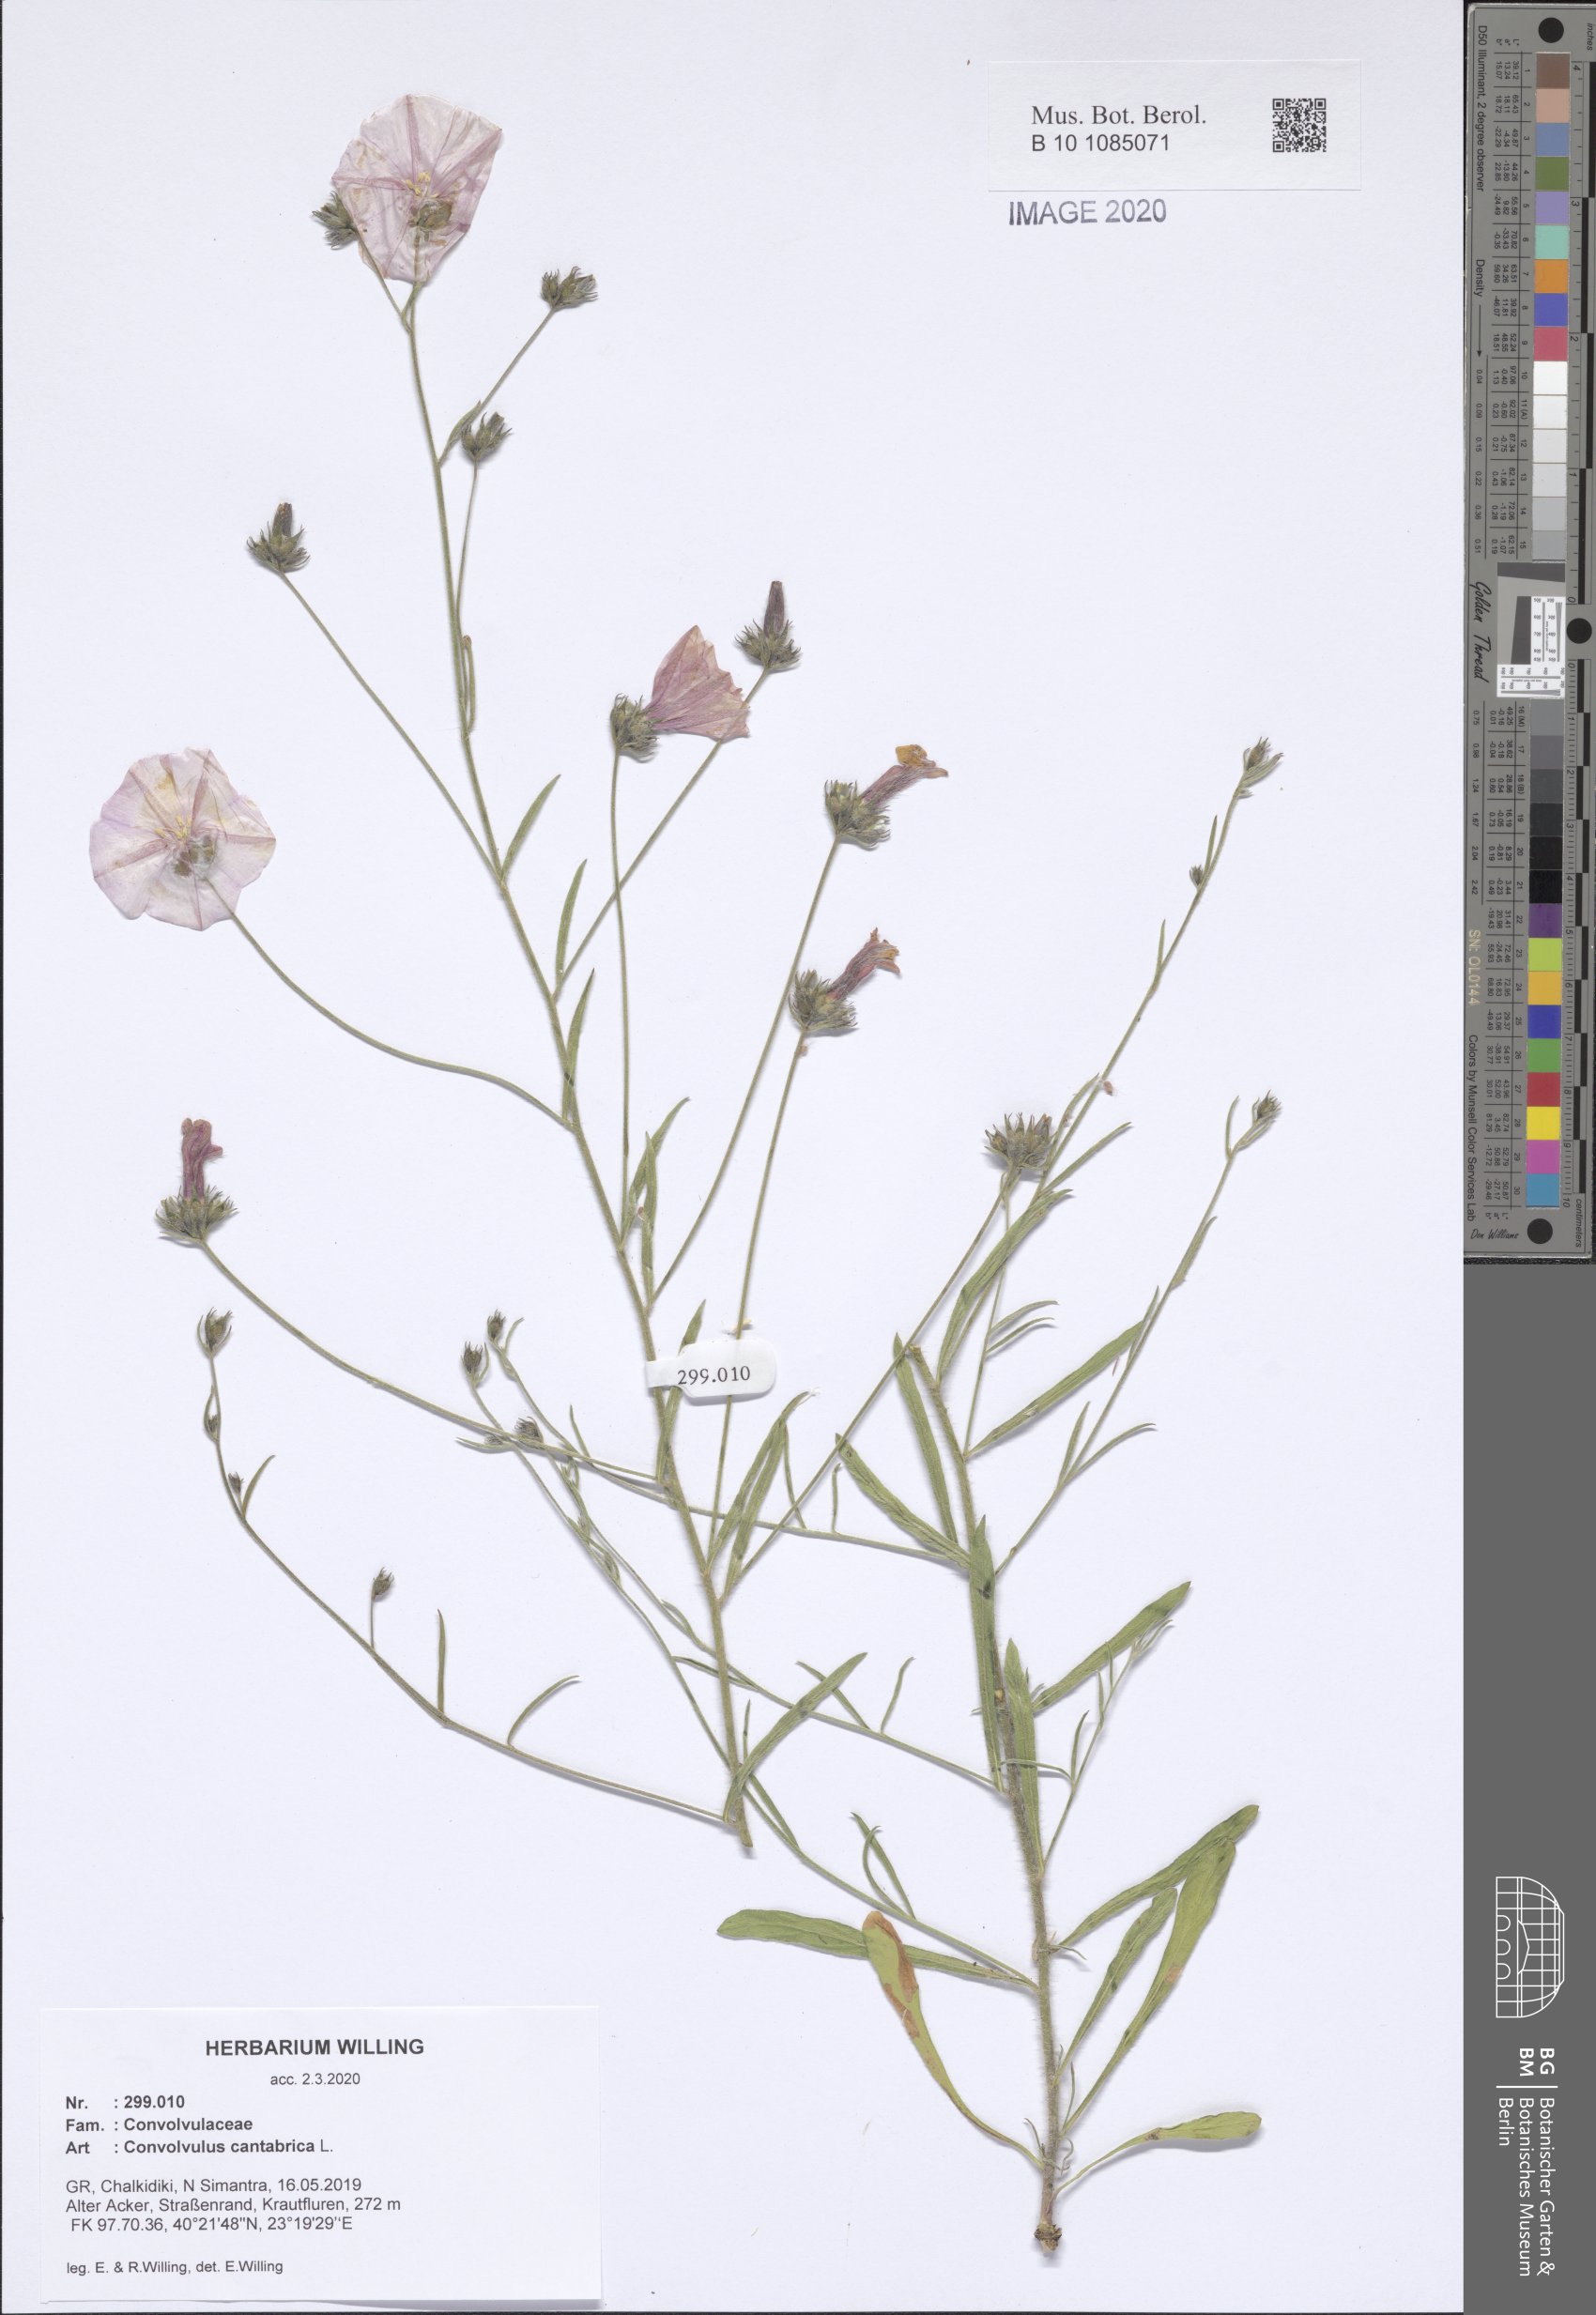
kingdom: Plantae
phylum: Tracheophyta
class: Magnoliopsida
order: Solanales
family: Convolvulaceae
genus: Convolvulus
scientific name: Convolvulus cantabrica
